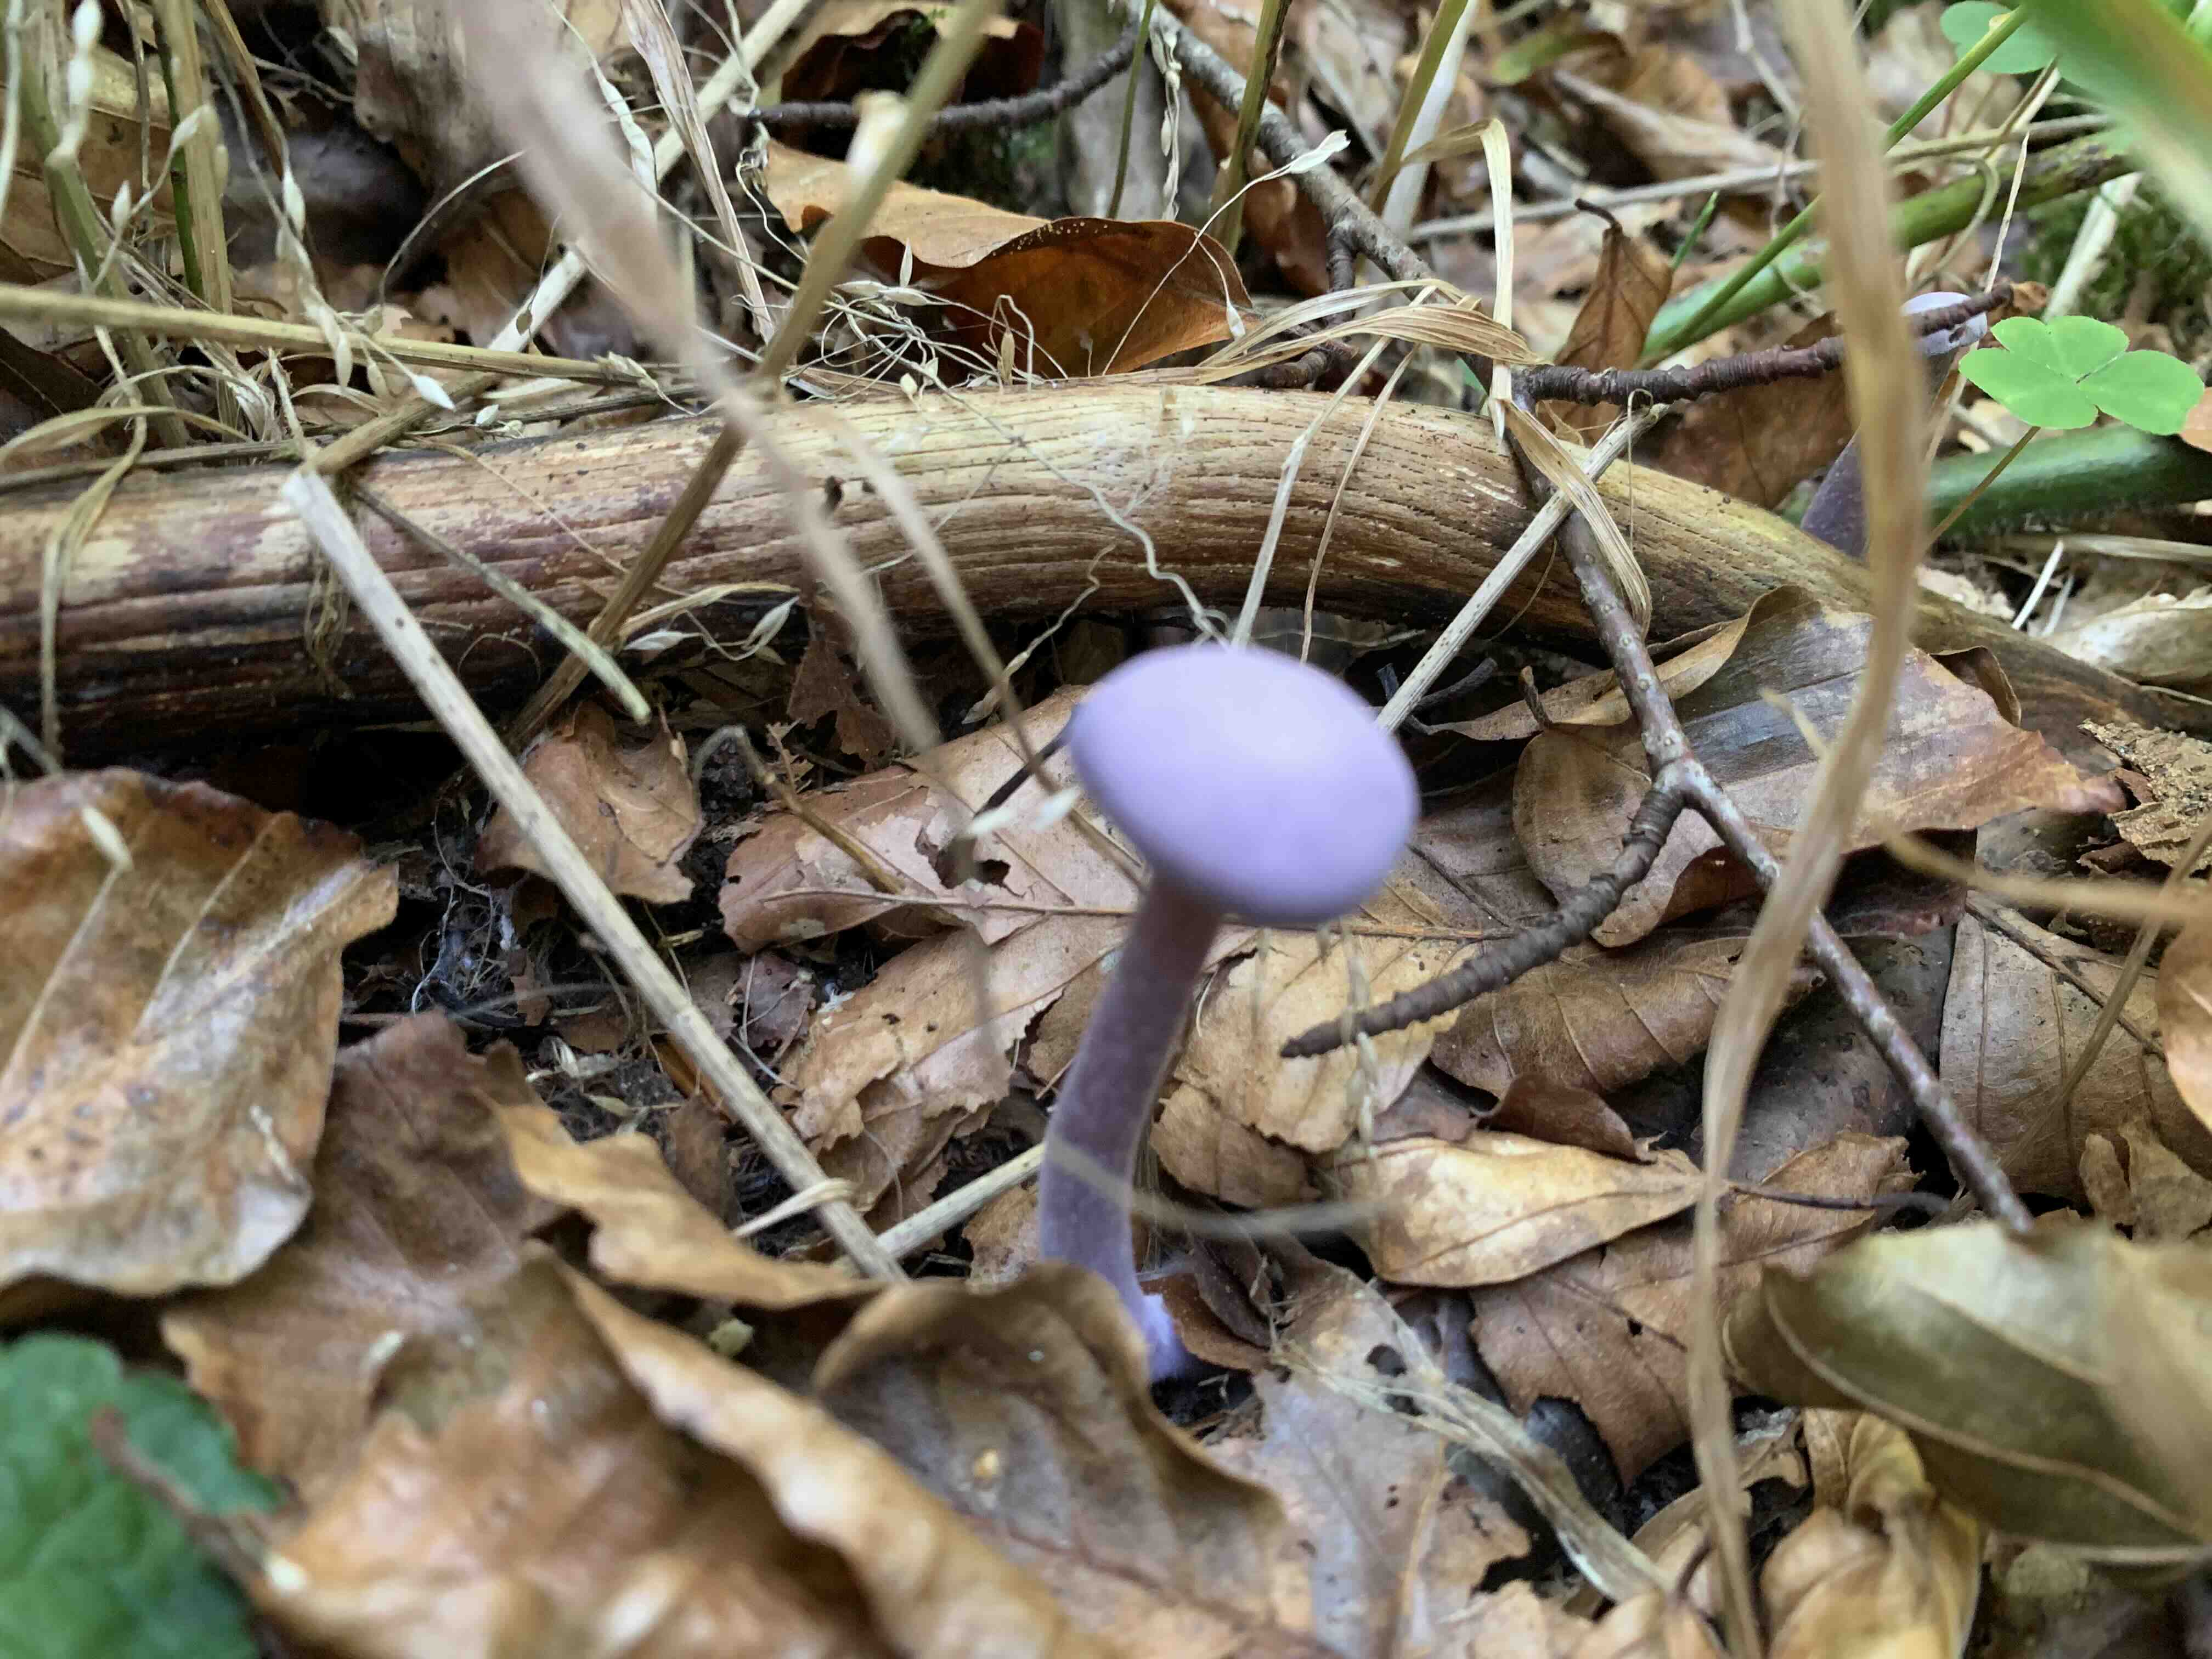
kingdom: Fungi
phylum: Basidiomycota
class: Agaricomycetes
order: Agaricales
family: Hydnangiaceae
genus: Laccaria
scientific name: Laccaria amethystina
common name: violet ametysthat
